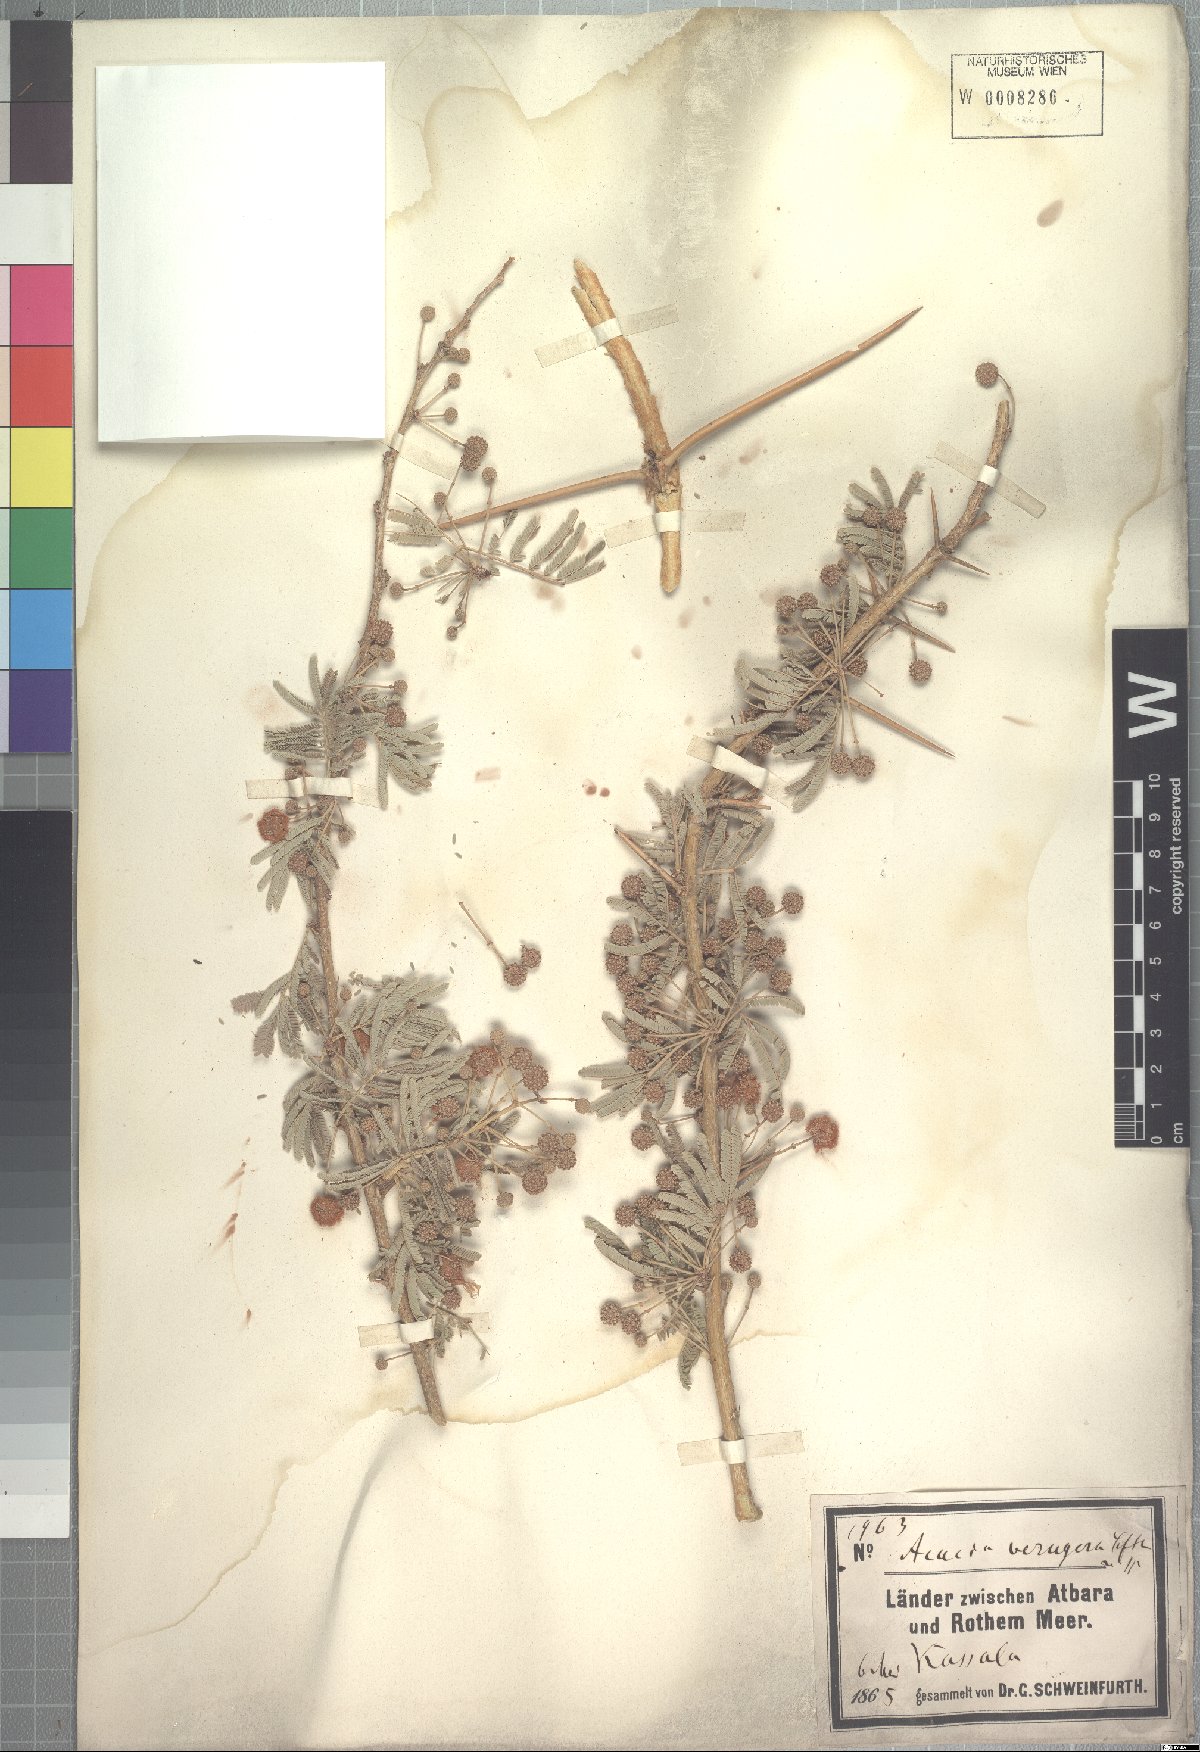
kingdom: Plantae
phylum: Tracheophyta
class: Magnoliopsida
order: Fabales
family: Fabaceae
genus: Vachellia
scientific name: Vachellia sieberiana
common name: Flat-topped thorn
